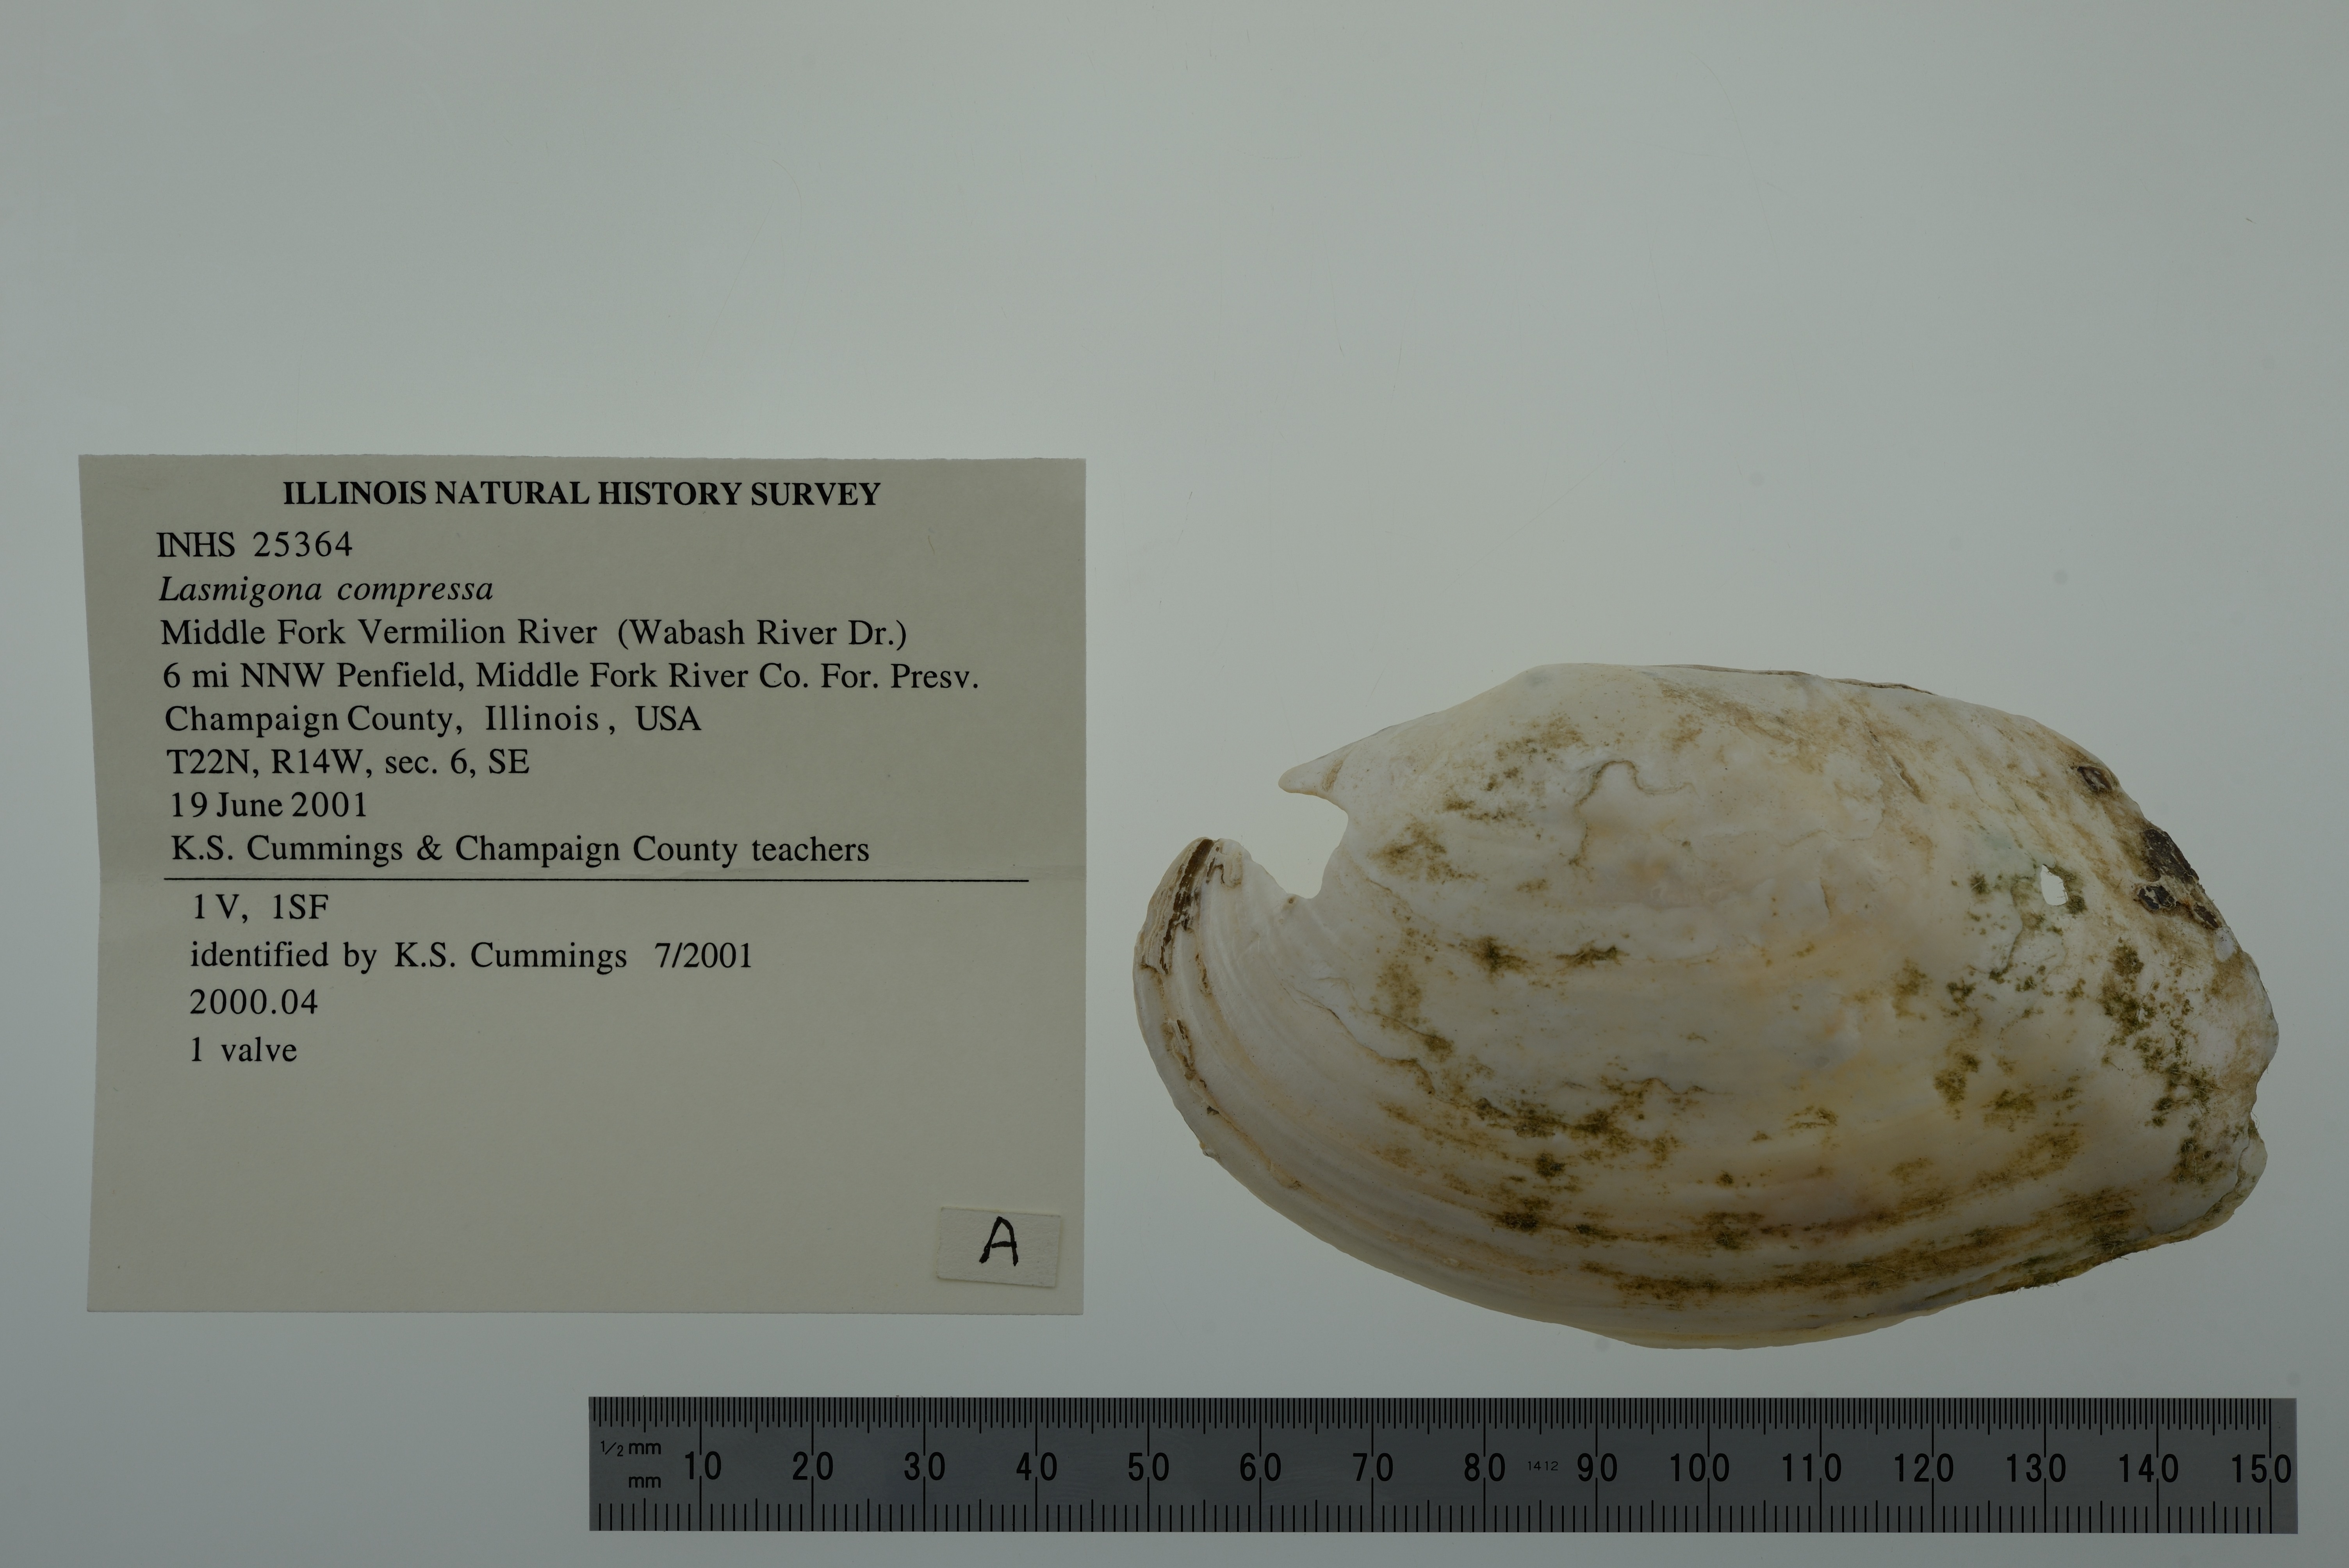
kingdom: Animalia
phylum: Mollusca
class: Bivalvia
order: Unionida
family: Unionidae
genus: Lasmigona
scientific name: Lasmigona compressa
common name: Creek heelsplitter
